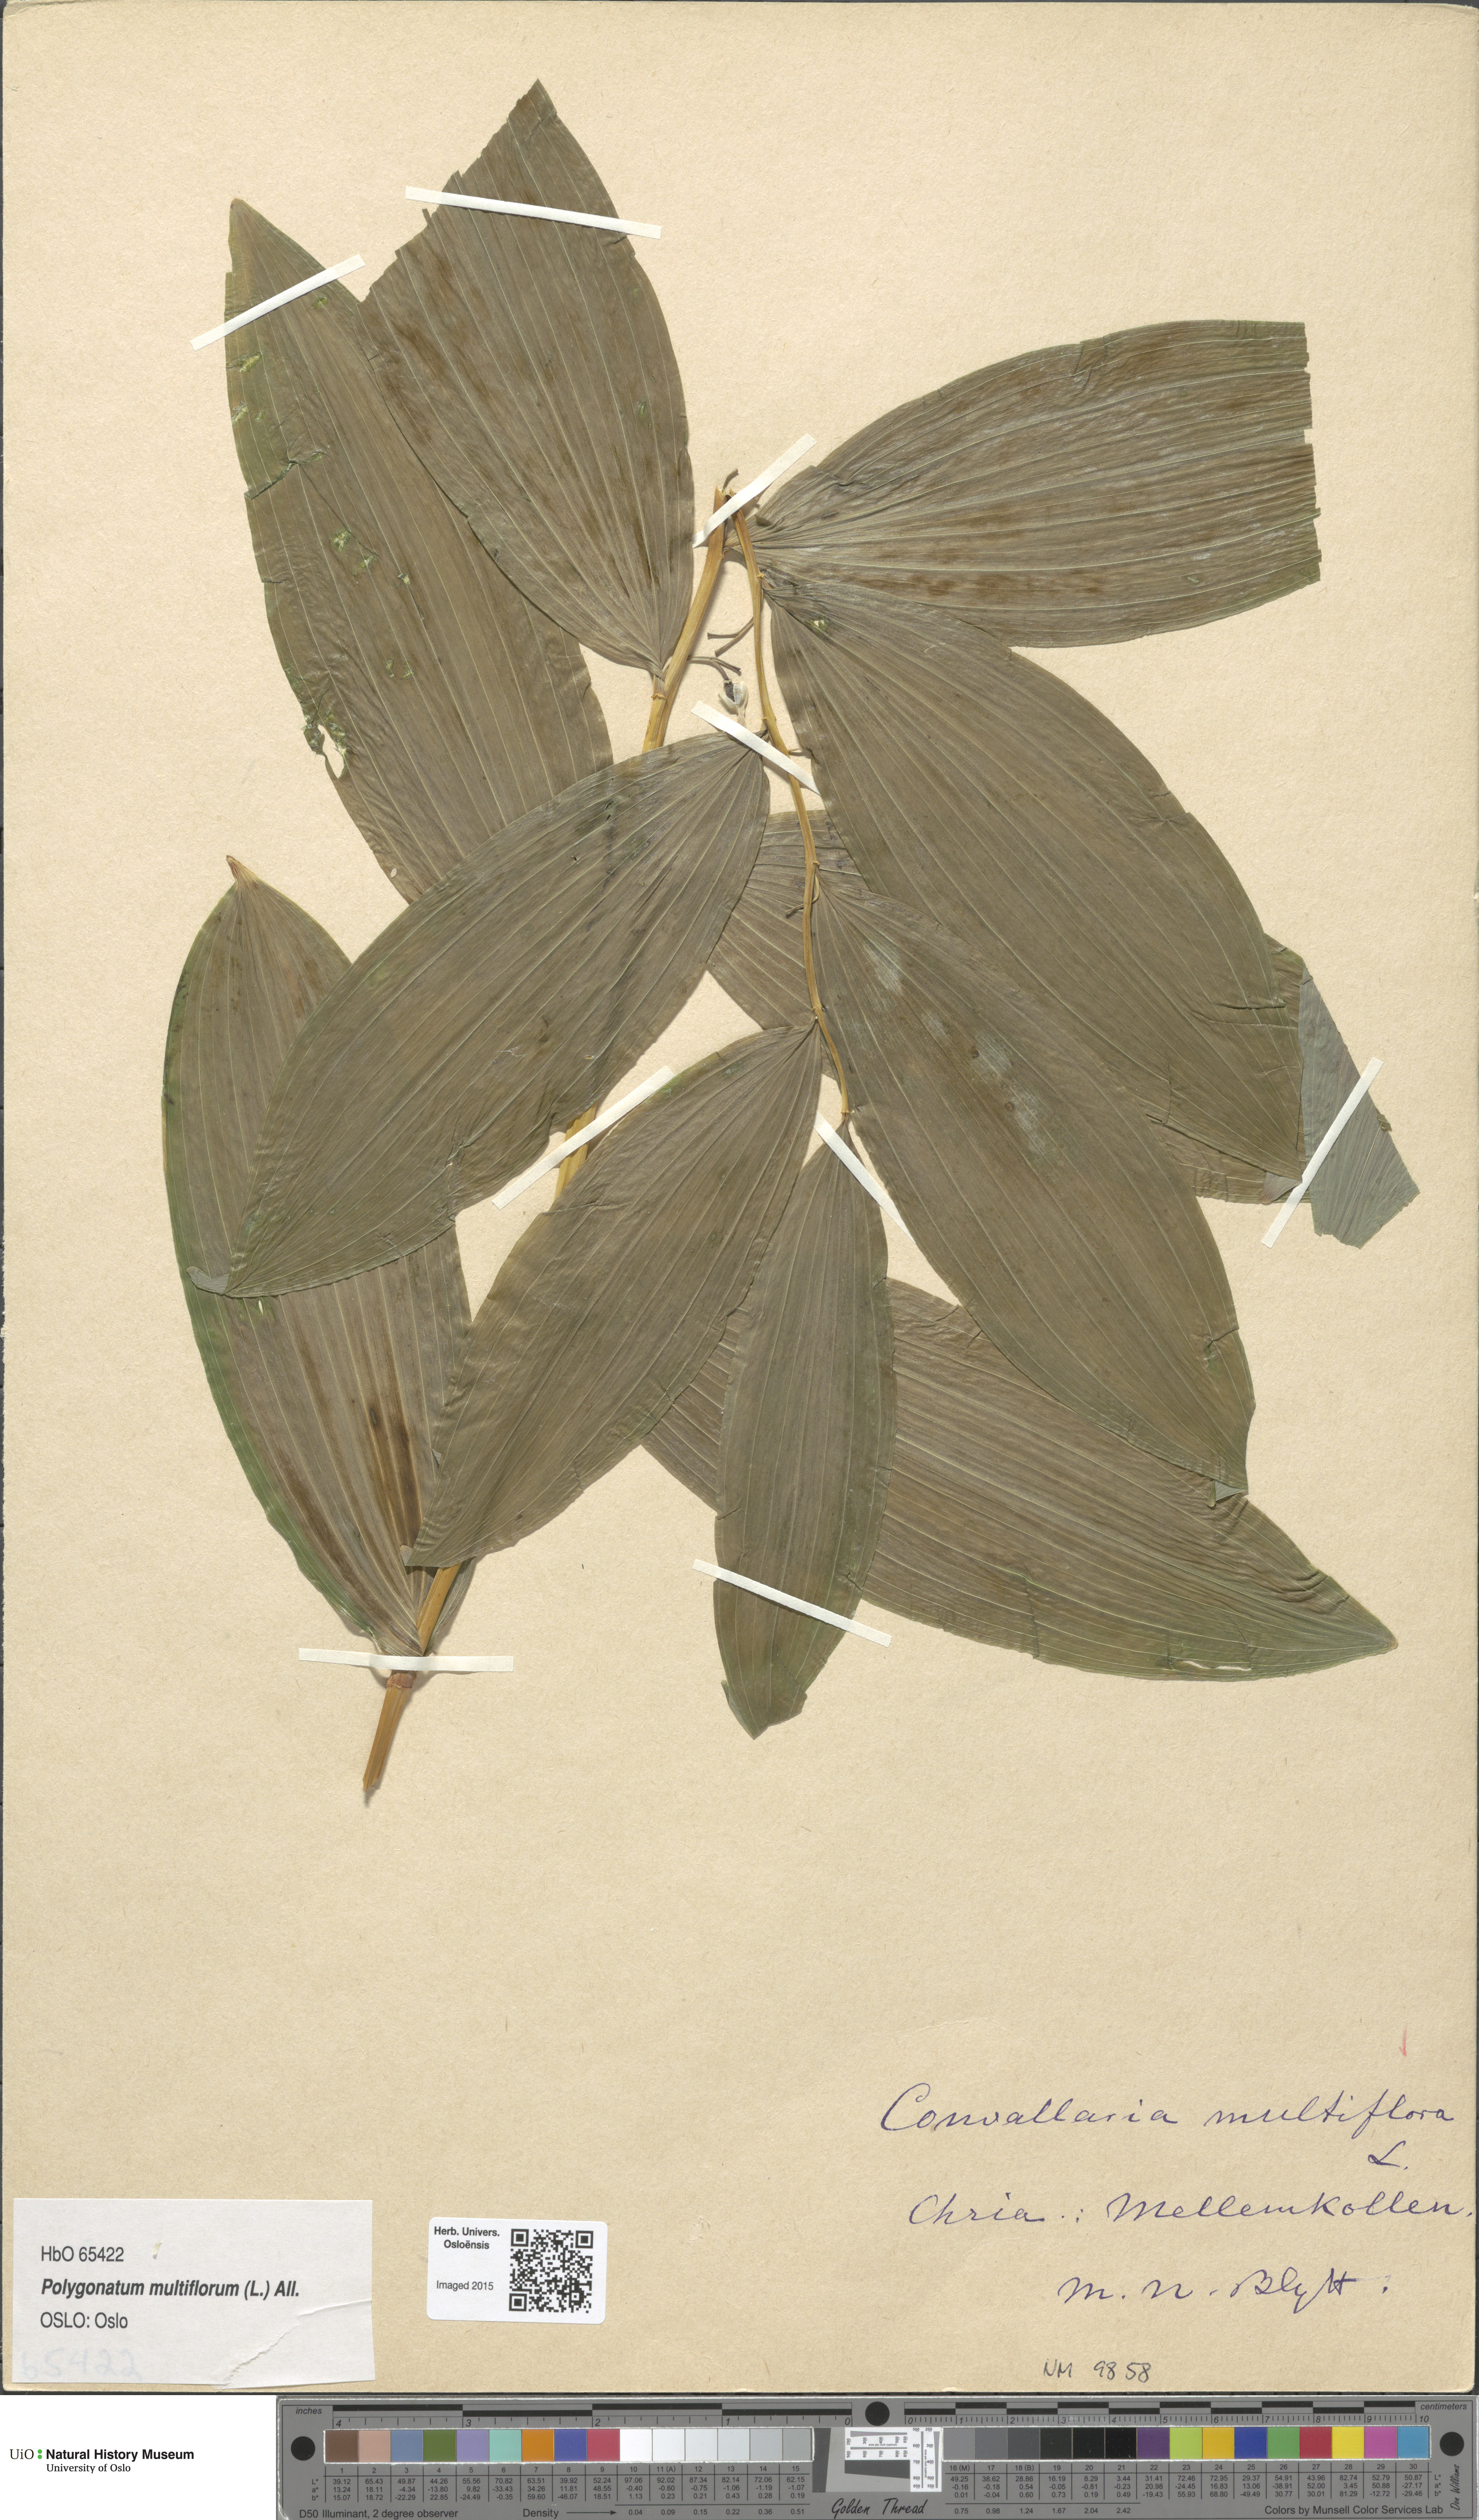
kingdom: Plantae
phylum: Tracheophyta
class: Liliopsida
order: Asparagales
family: Asparagaceae
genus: Polygonatum
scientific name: Polygonatum multiflorum
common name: Solomon's-seal
